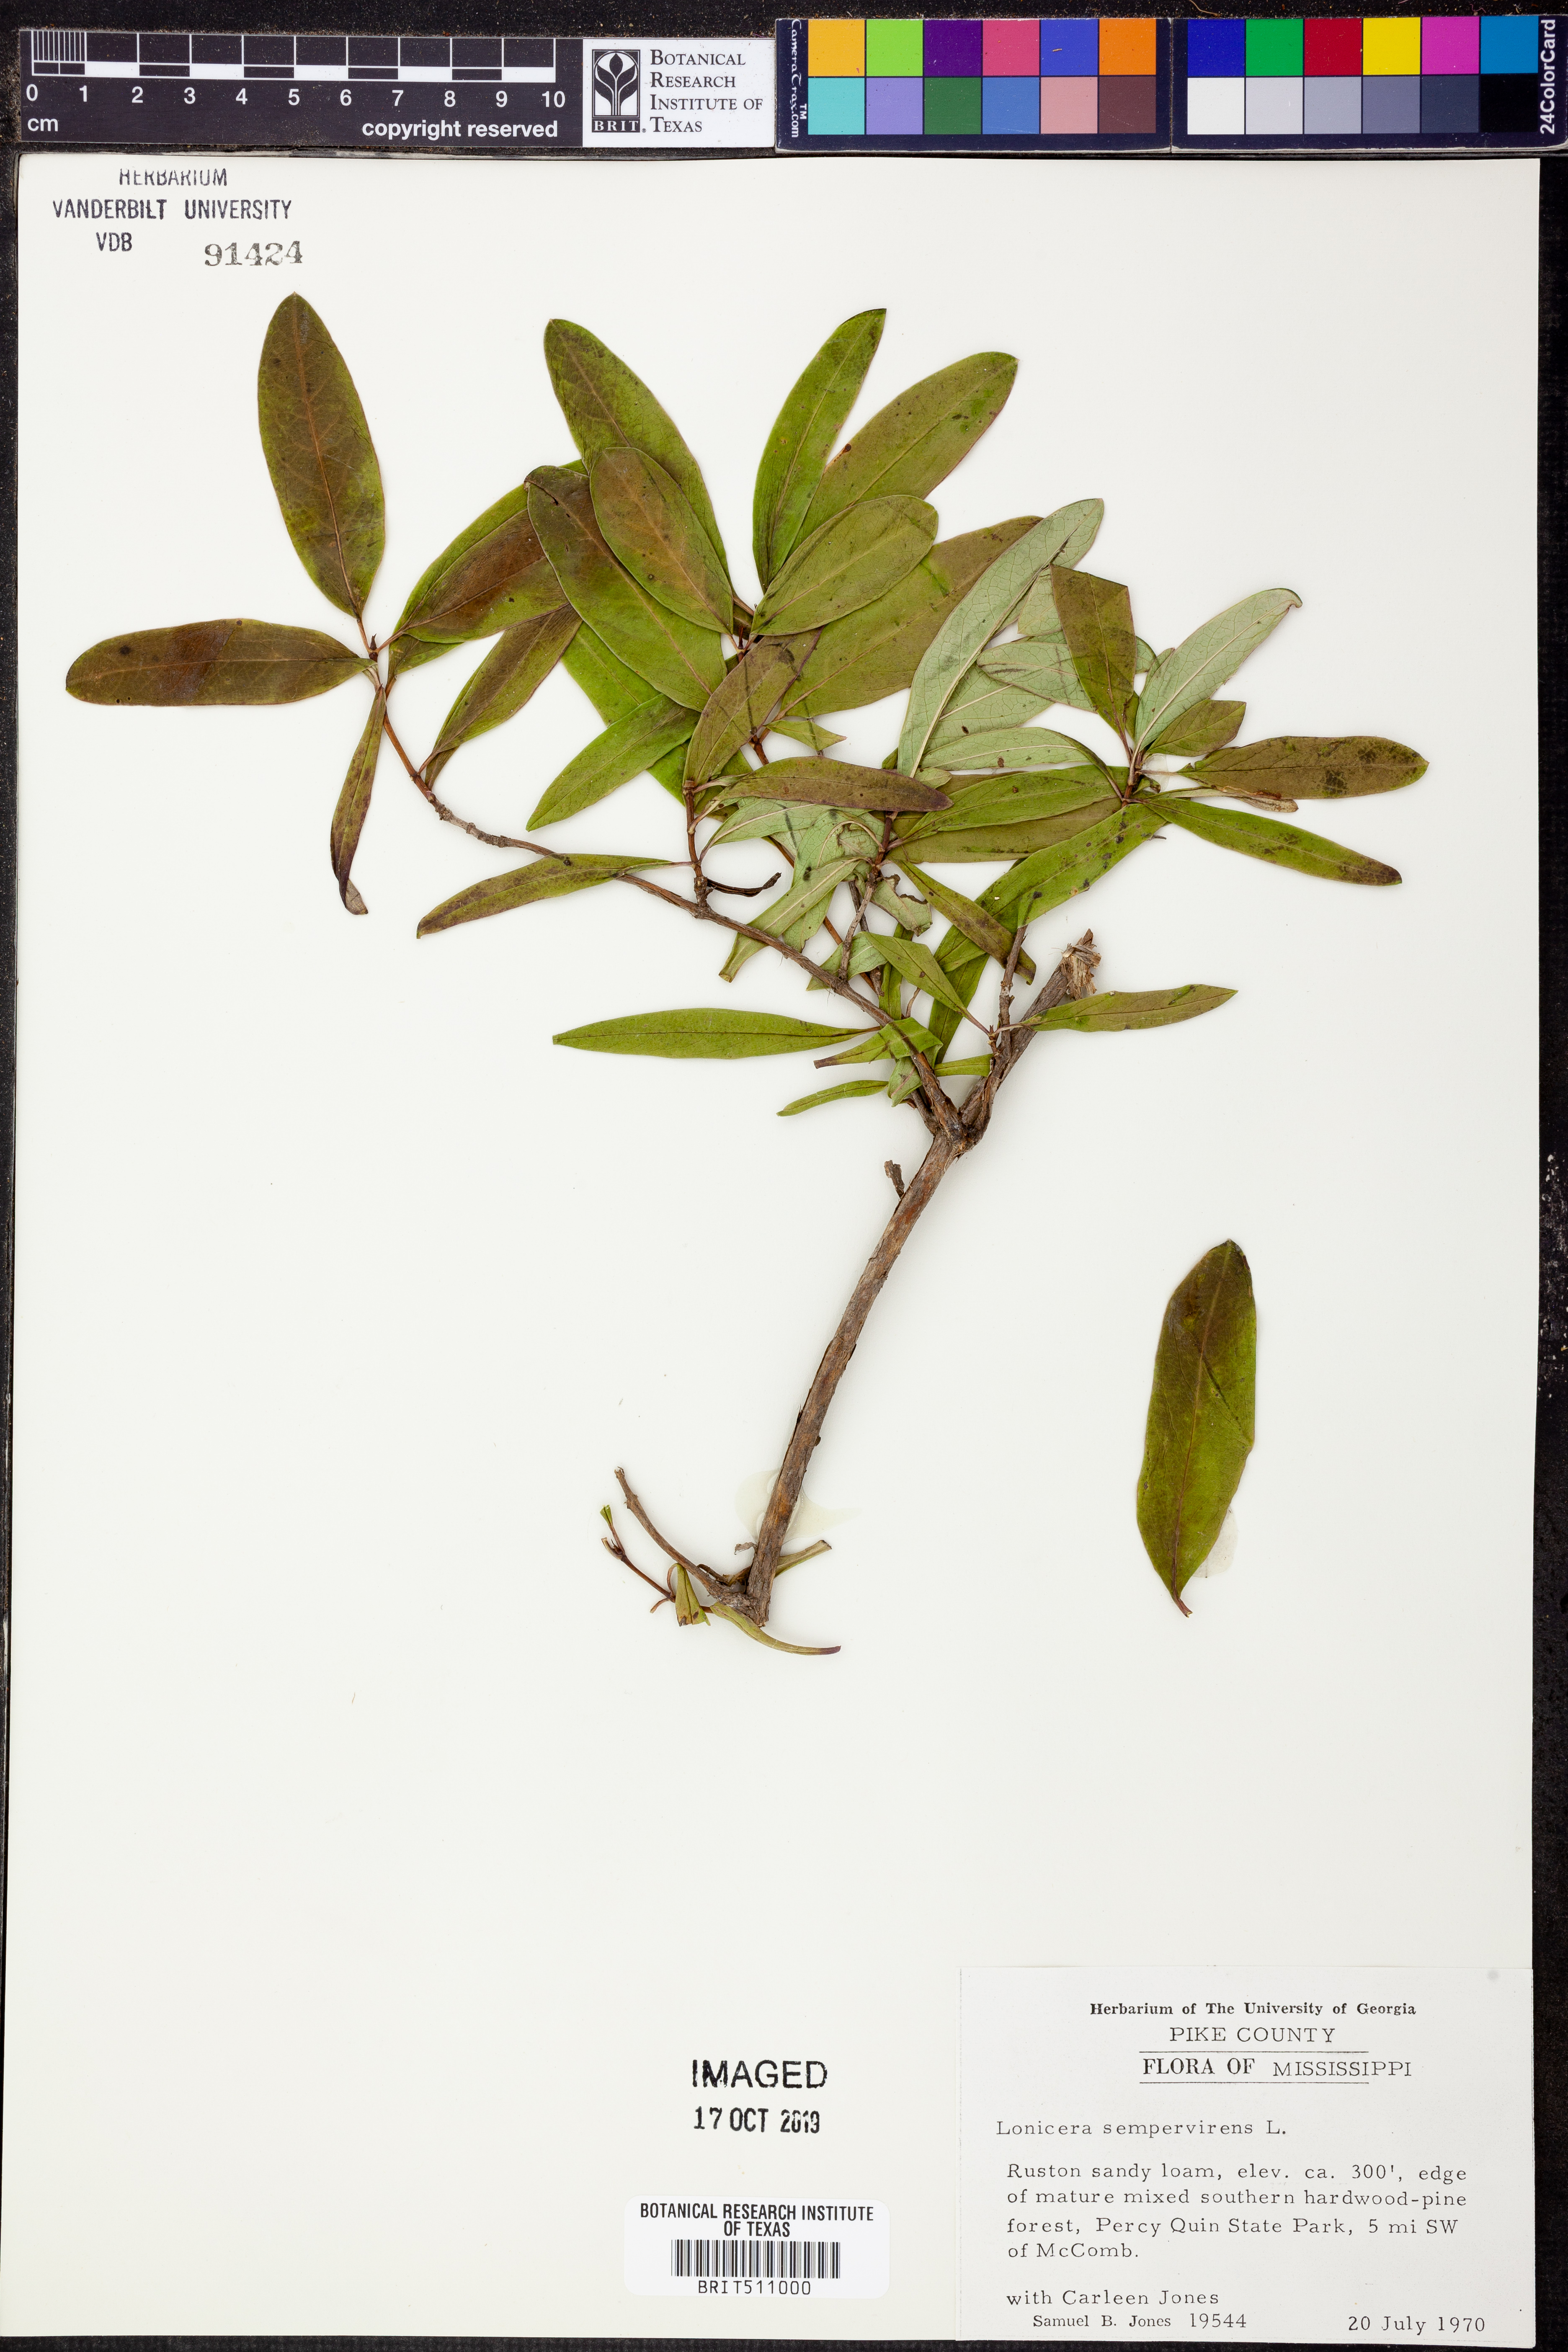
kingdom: Plantae
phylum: Tracheophyta
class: Magnoliopsida
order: Dipsacales
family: Caprifoliaceae
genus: Lonicera
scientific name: Lonicera sempervirens
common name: Coral honeysuckle
